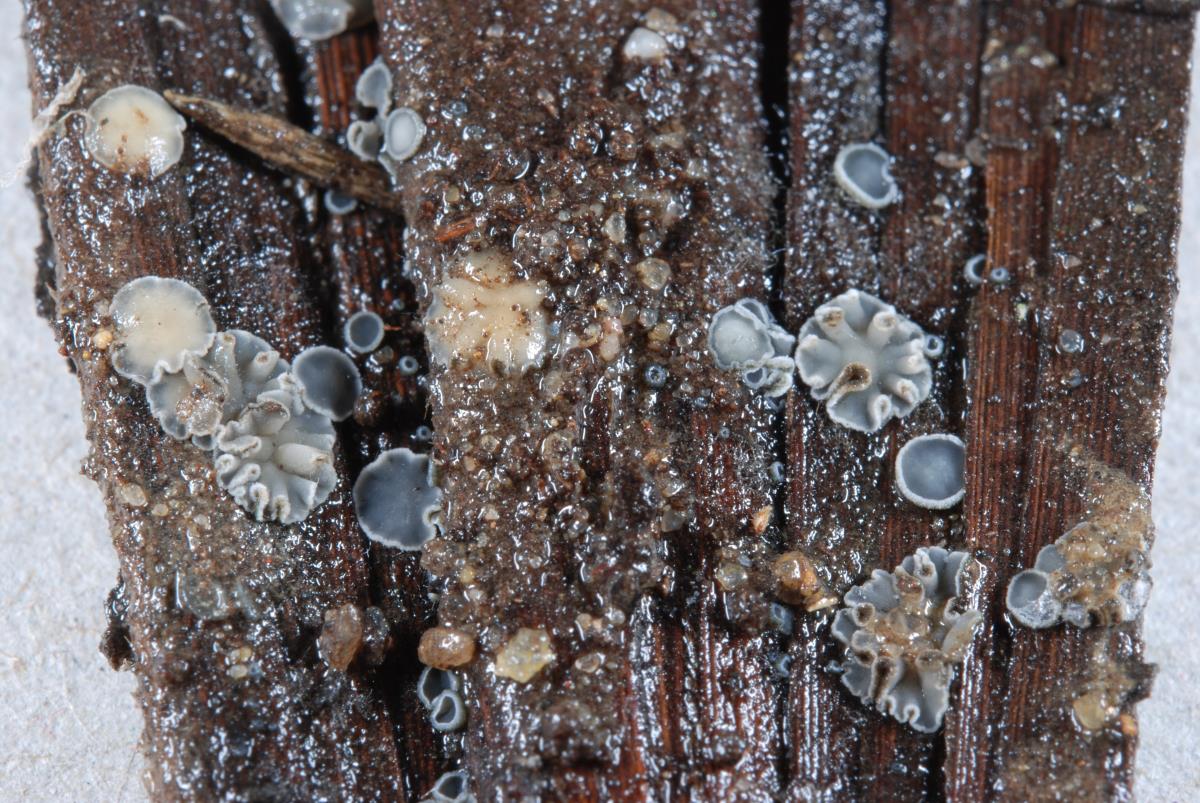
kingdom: Fungi
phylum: Ascomycota
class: Leotiomycetes
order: Helotiales
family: Mollisiaceae
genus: Mollisia
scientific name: Mollisia
